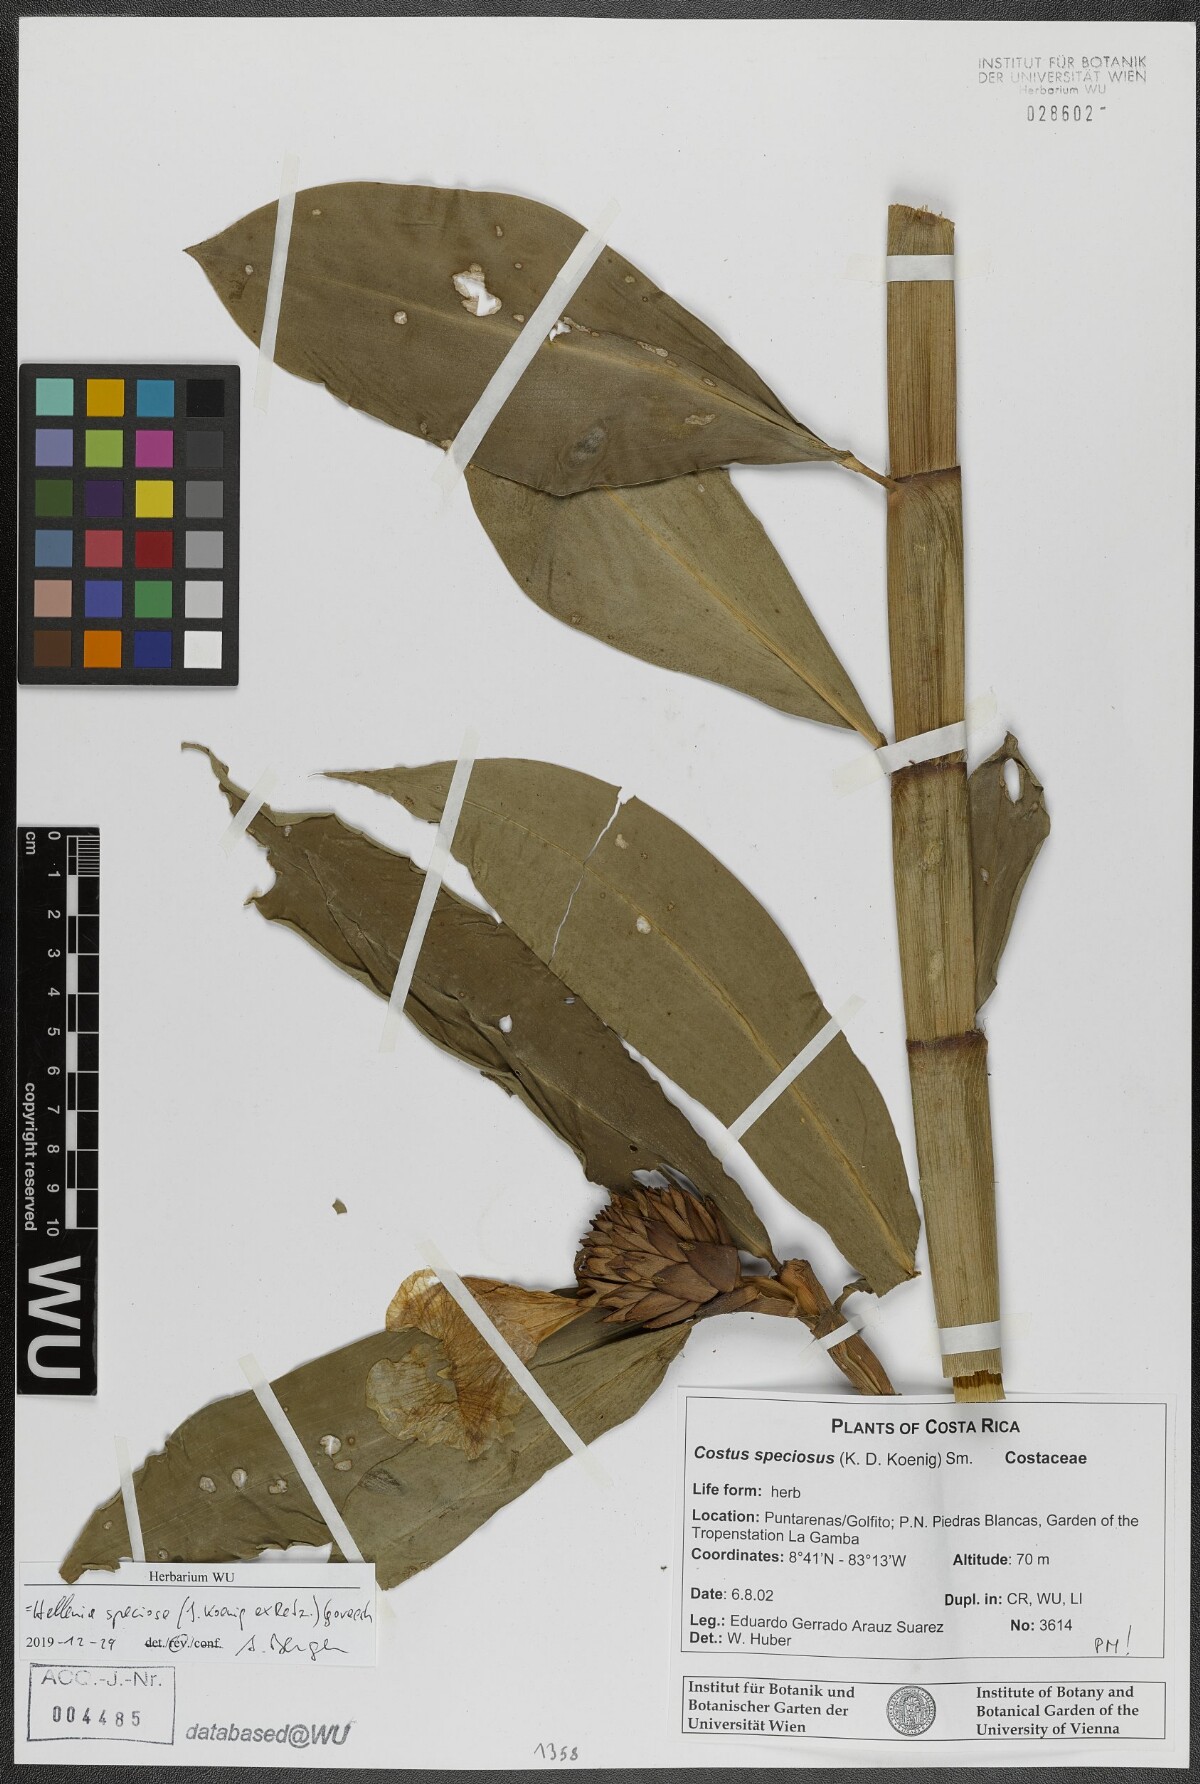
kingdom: Plantae
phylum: Tracheophyta
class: Liliopsida
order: Zingiberales
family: Costaceae
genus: Hellenia
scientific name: Hellenia speciosa
